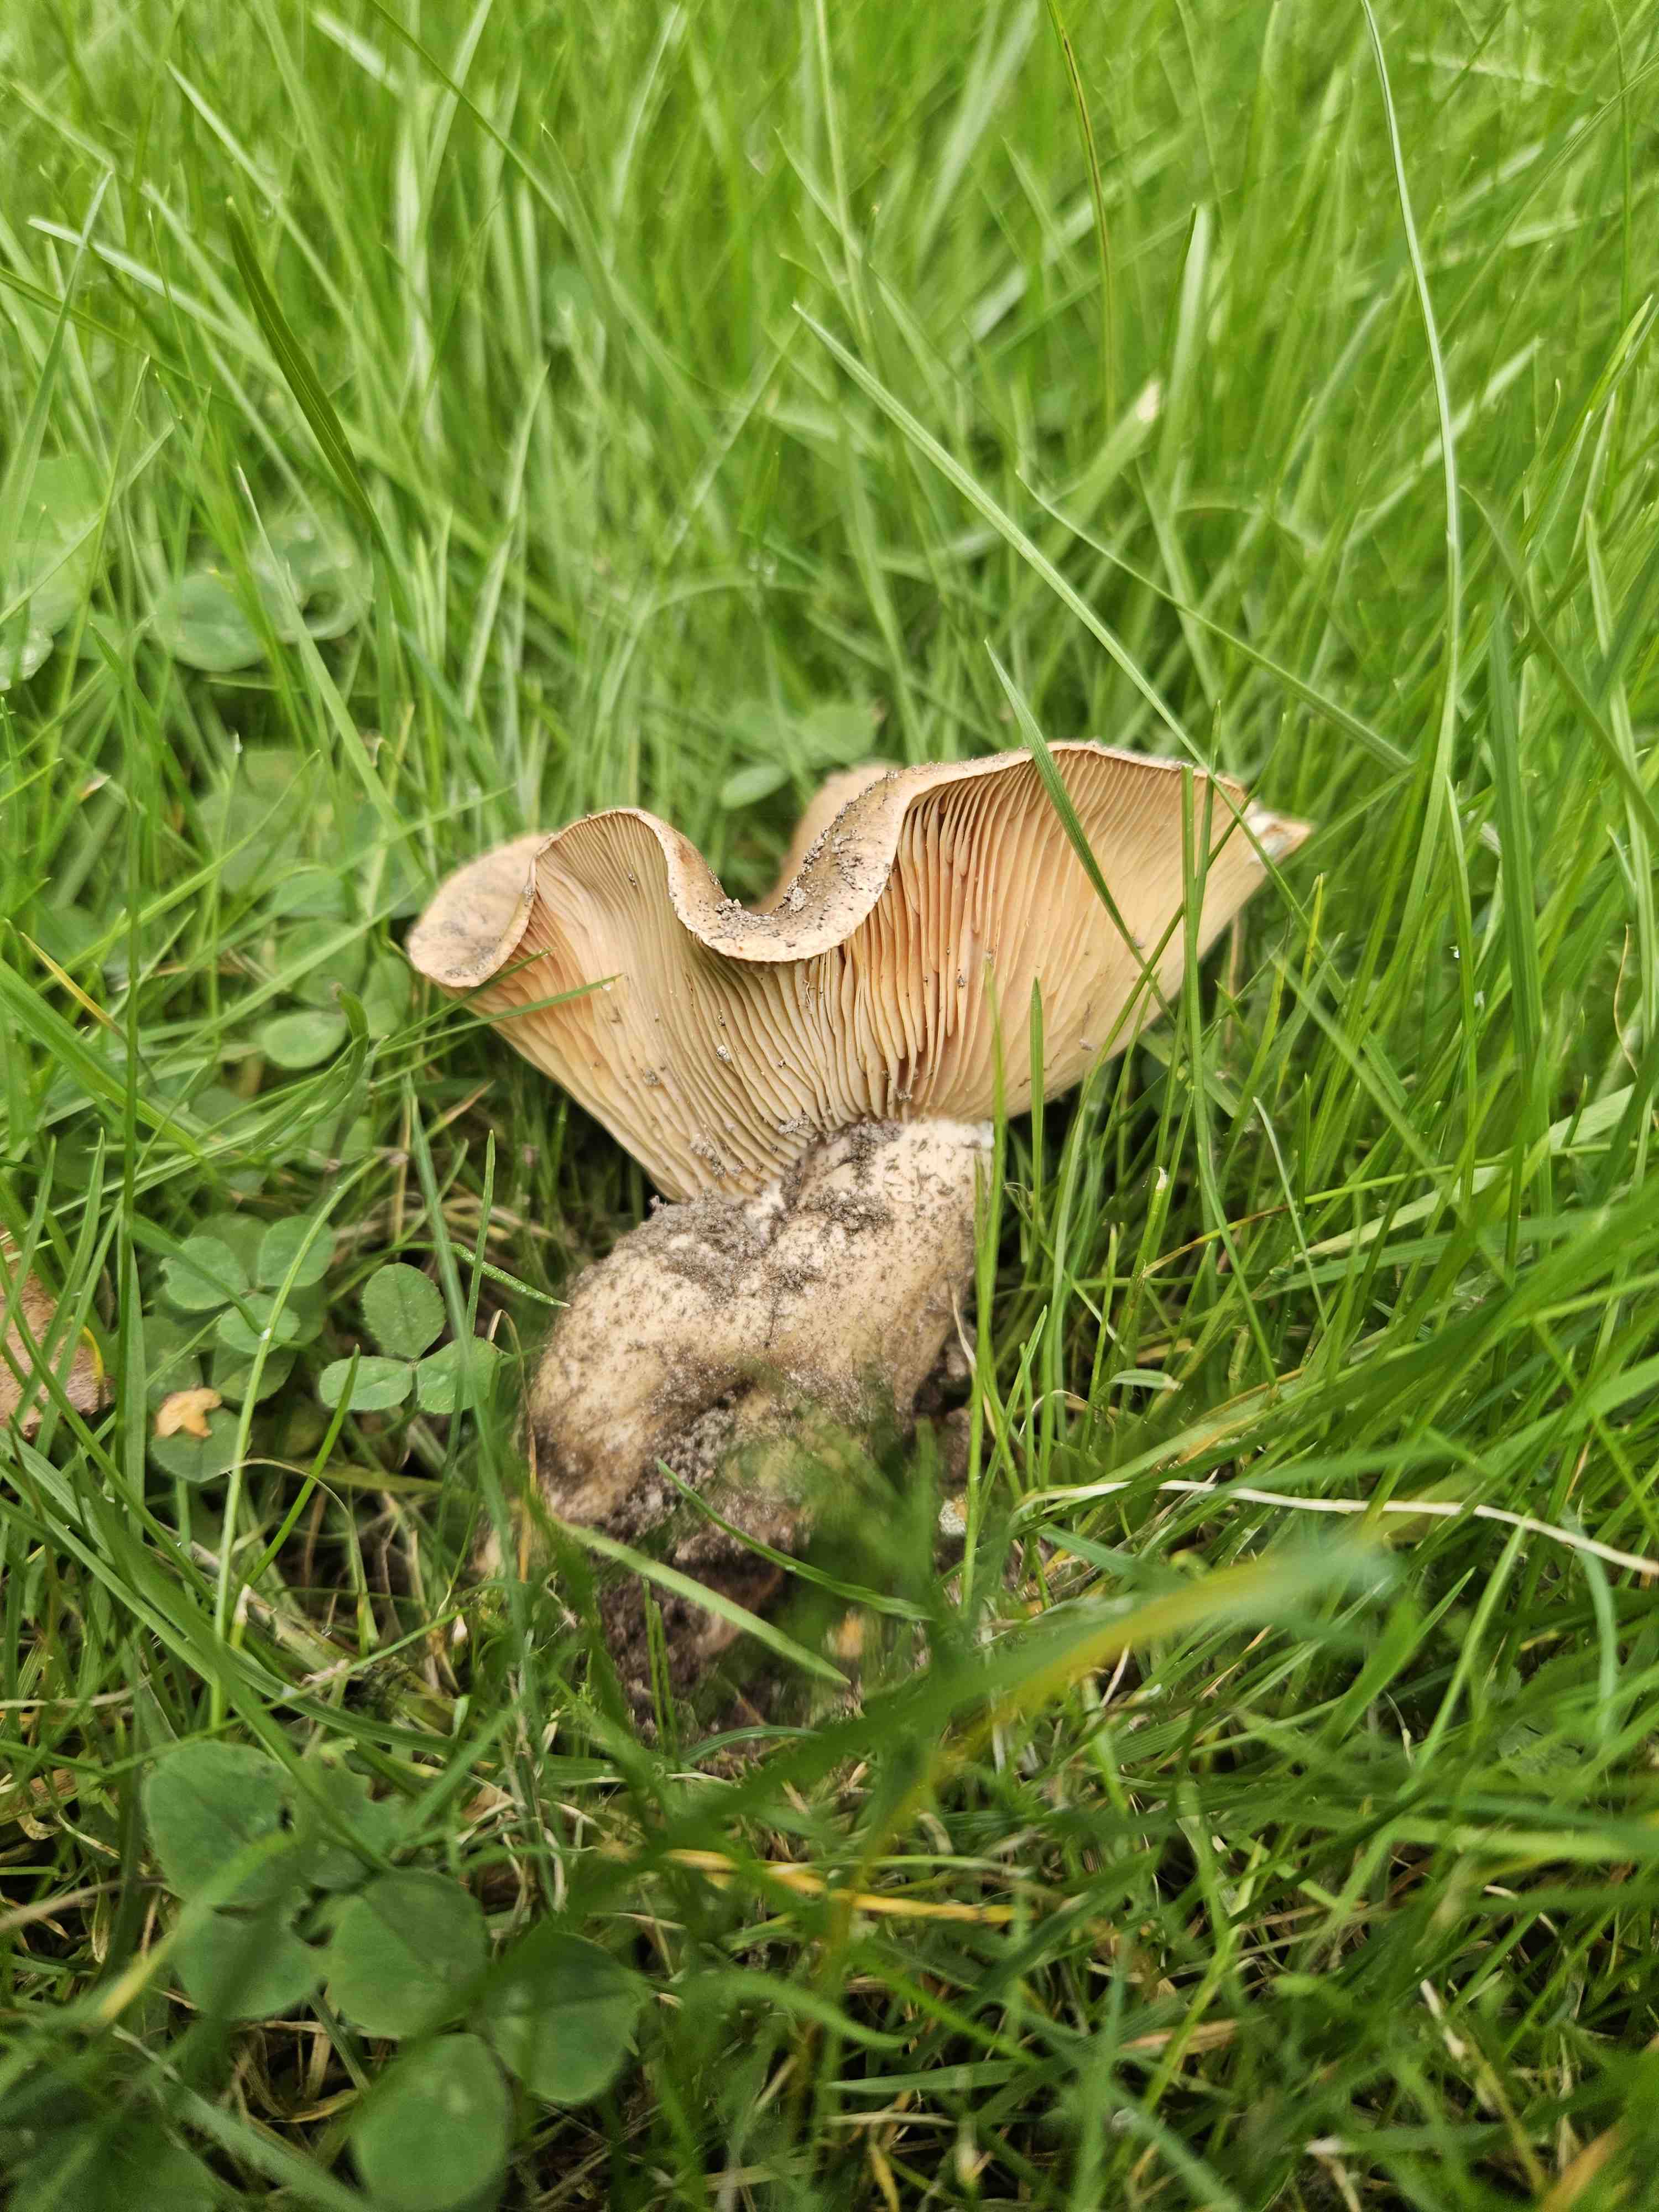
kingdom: Fungi
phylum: Basidiomycota
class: Agaricomycetes
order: Boletales
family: Paxillaceae
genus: Paxillus
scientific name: Paxillus
